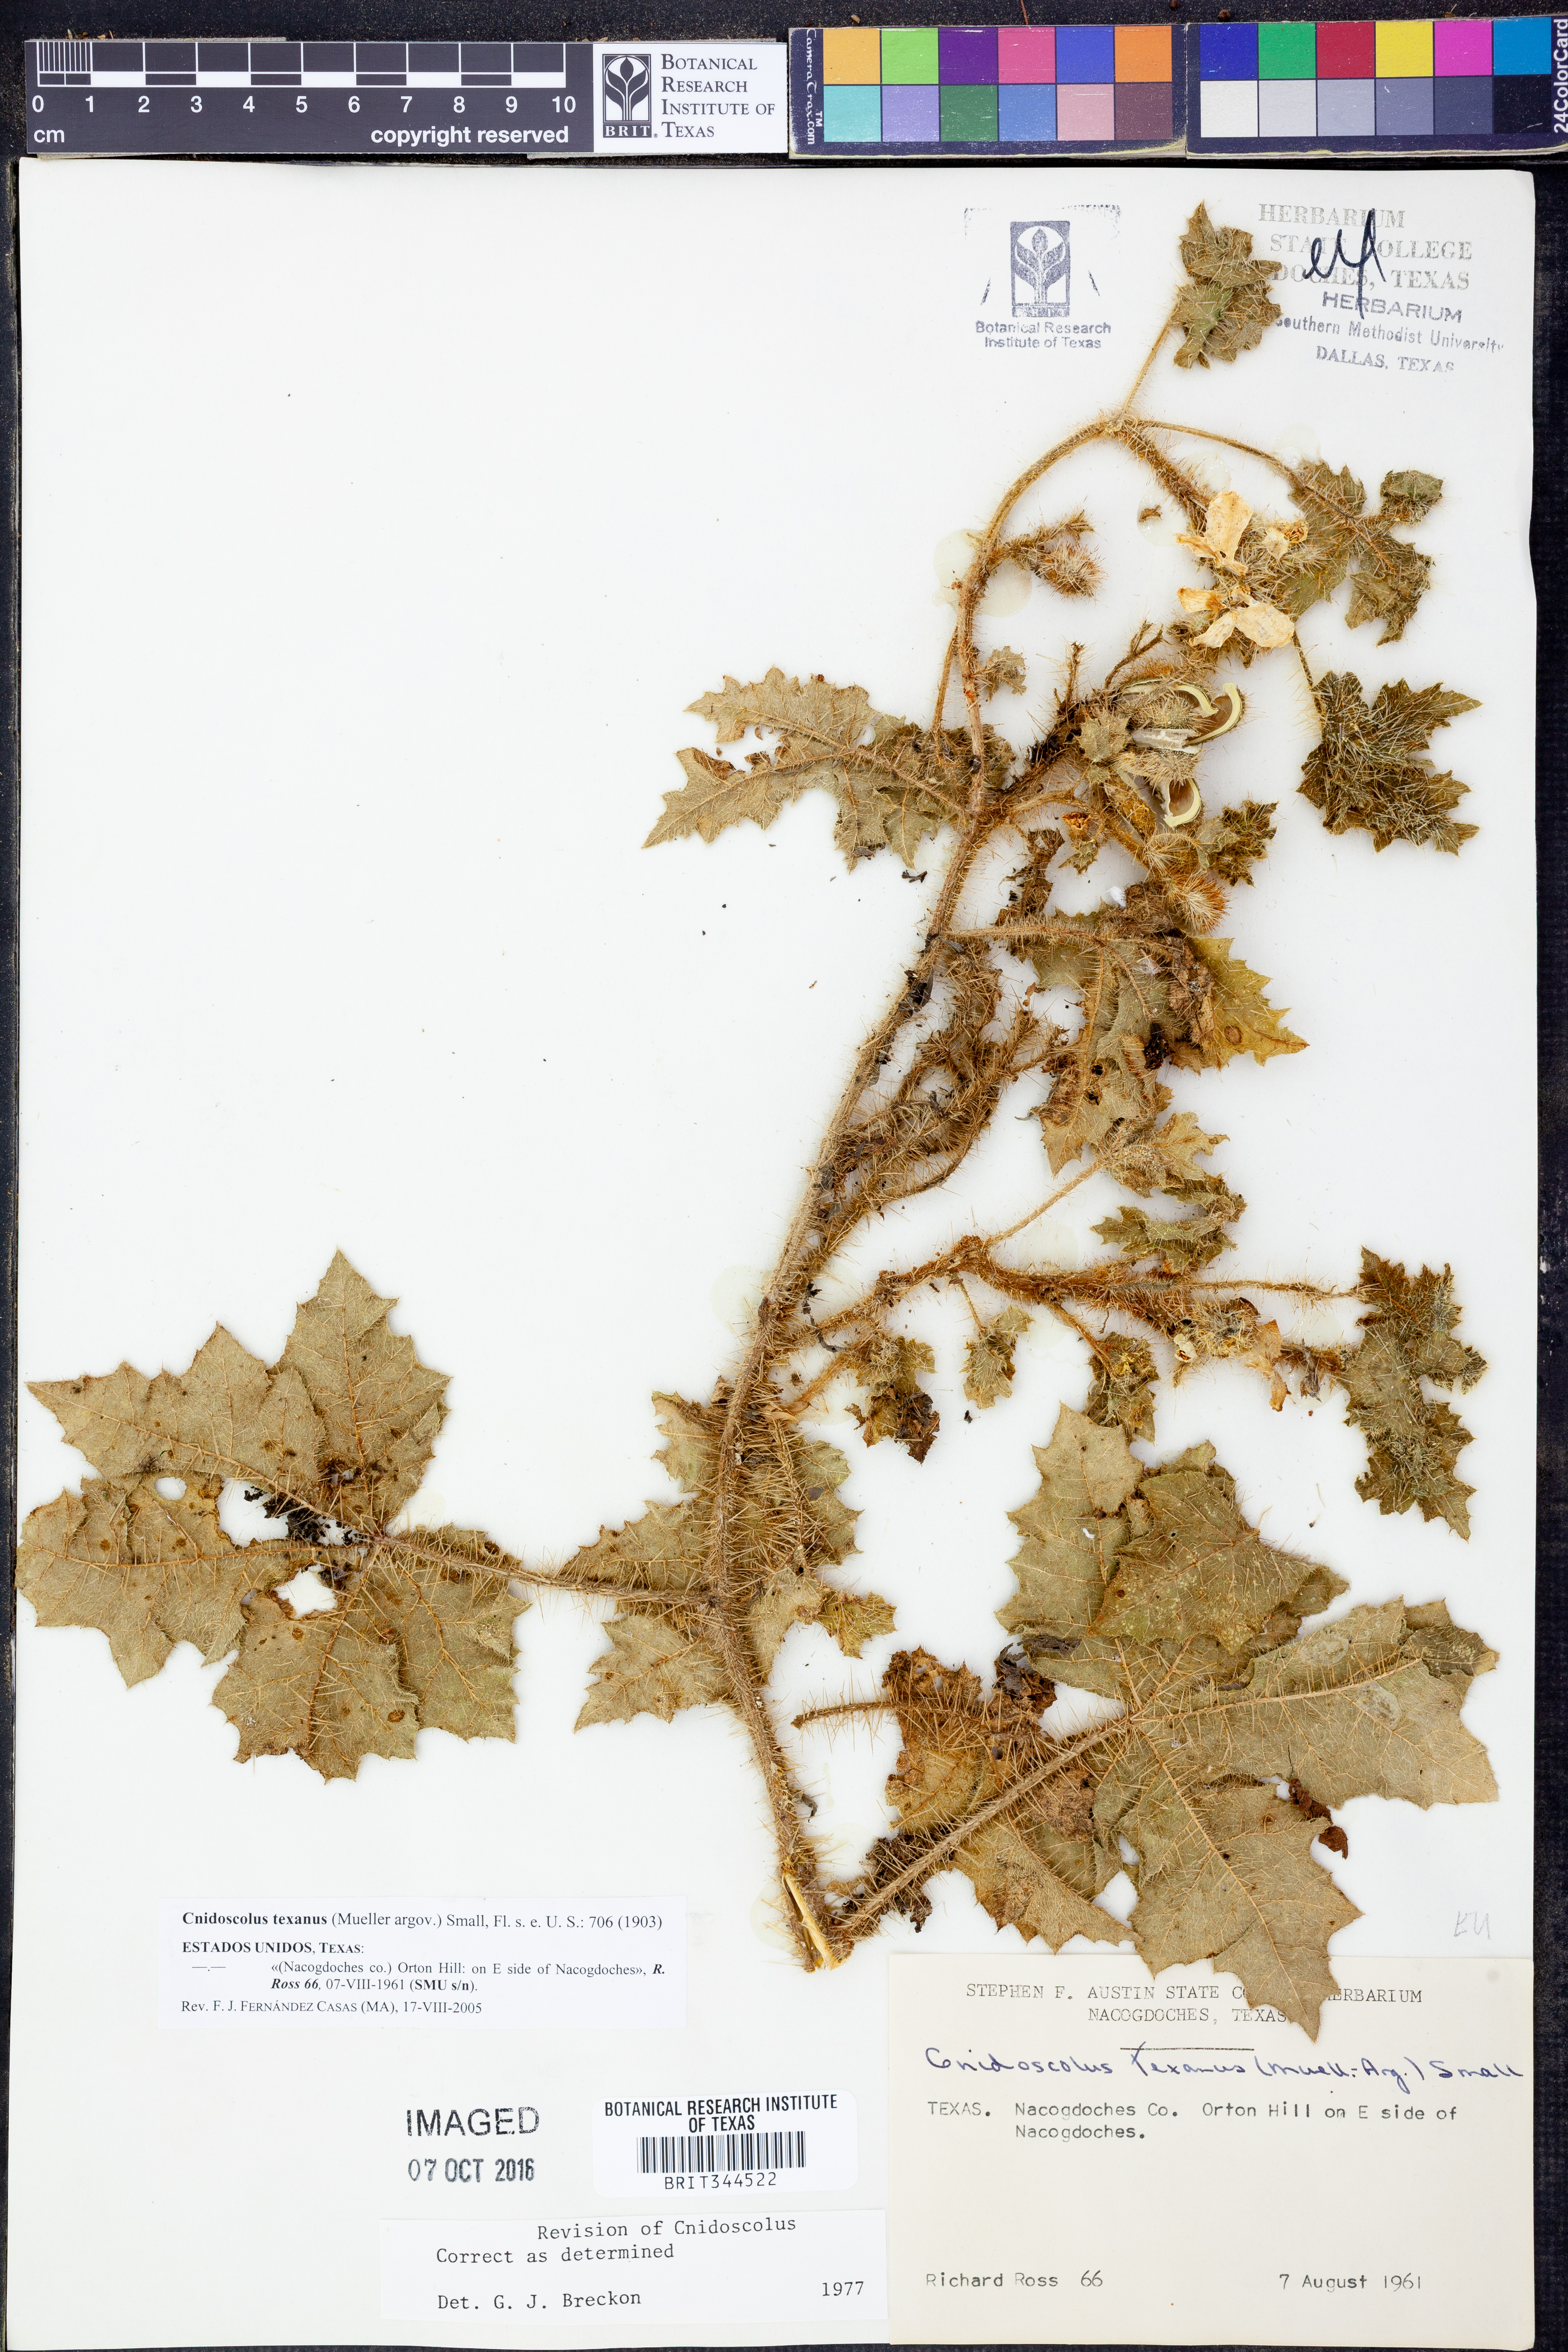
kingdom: Plantae
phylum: Tracheophyta
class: Magnoliopsida
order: Malpighiales
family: Euphorbiaceae
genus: Cnidoscolus
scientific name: Cnidoscolus texanus
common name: Texas bull-nettle
